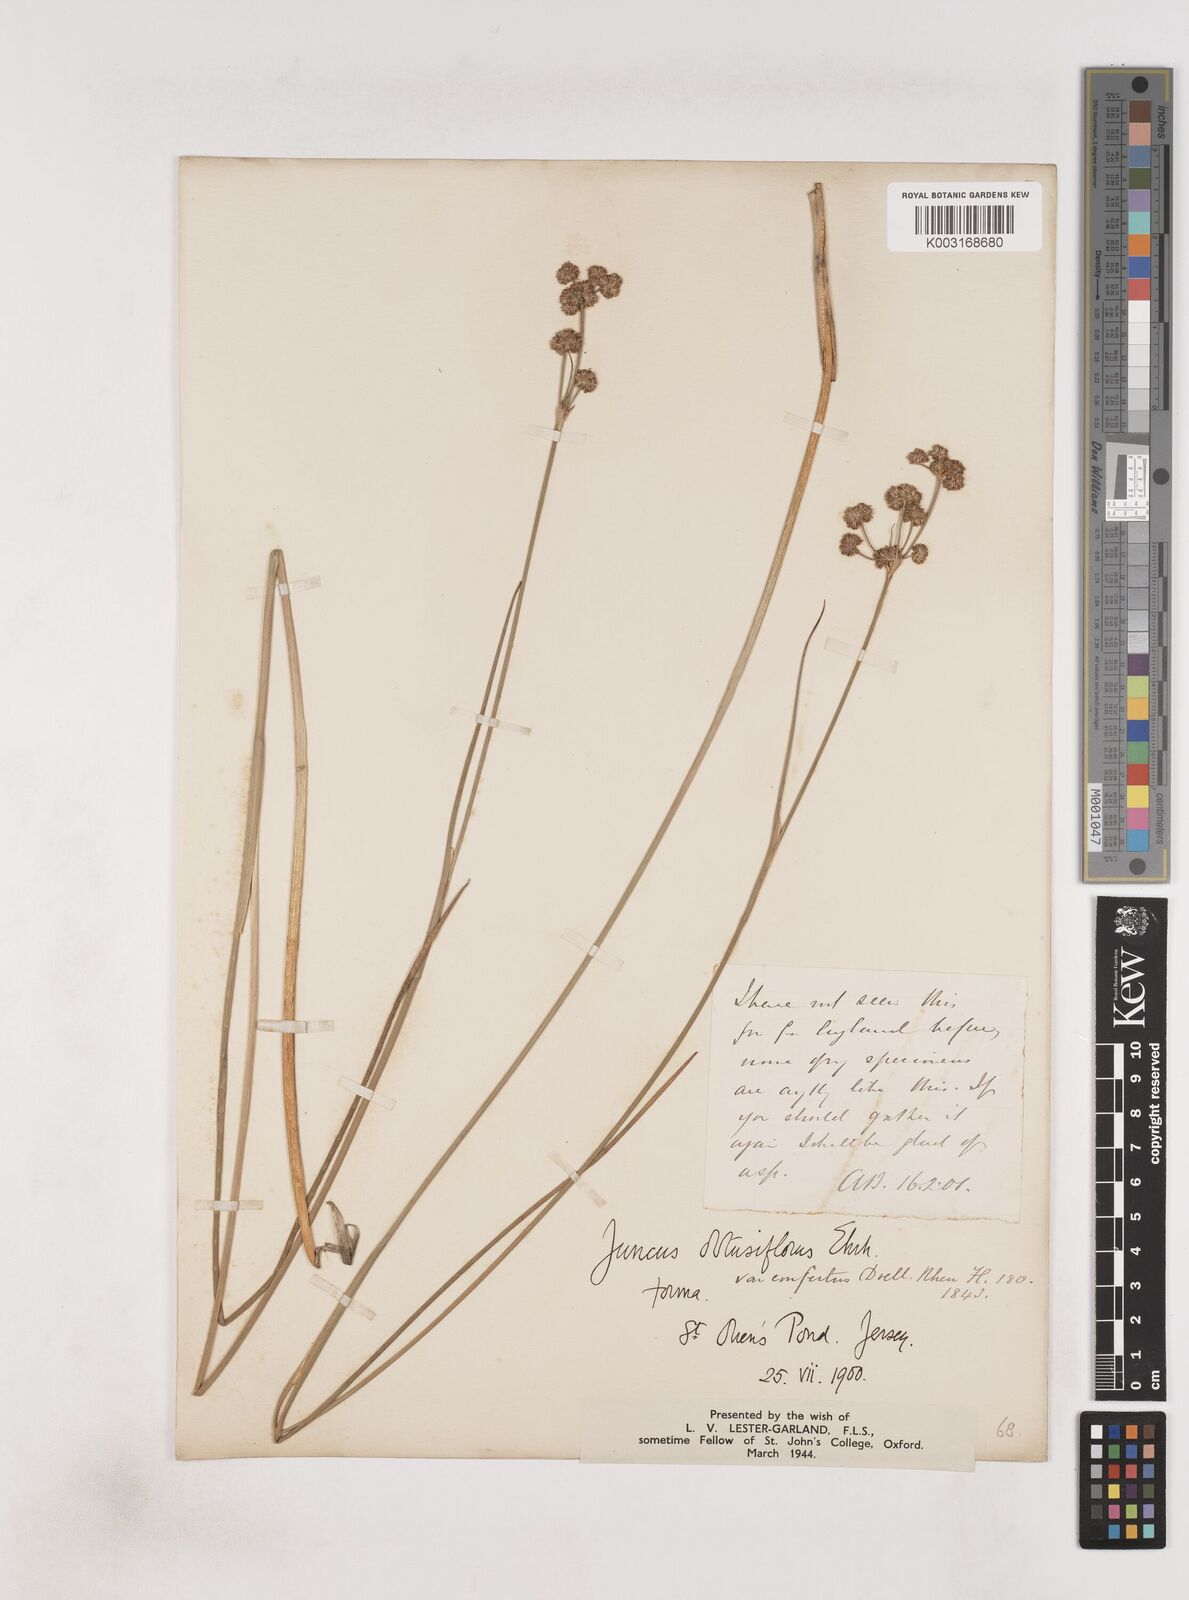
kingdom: Plantae
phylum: Tracheophyta
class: Liliopsida
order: Poales
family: Juncaceae
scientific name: Juncaceae
